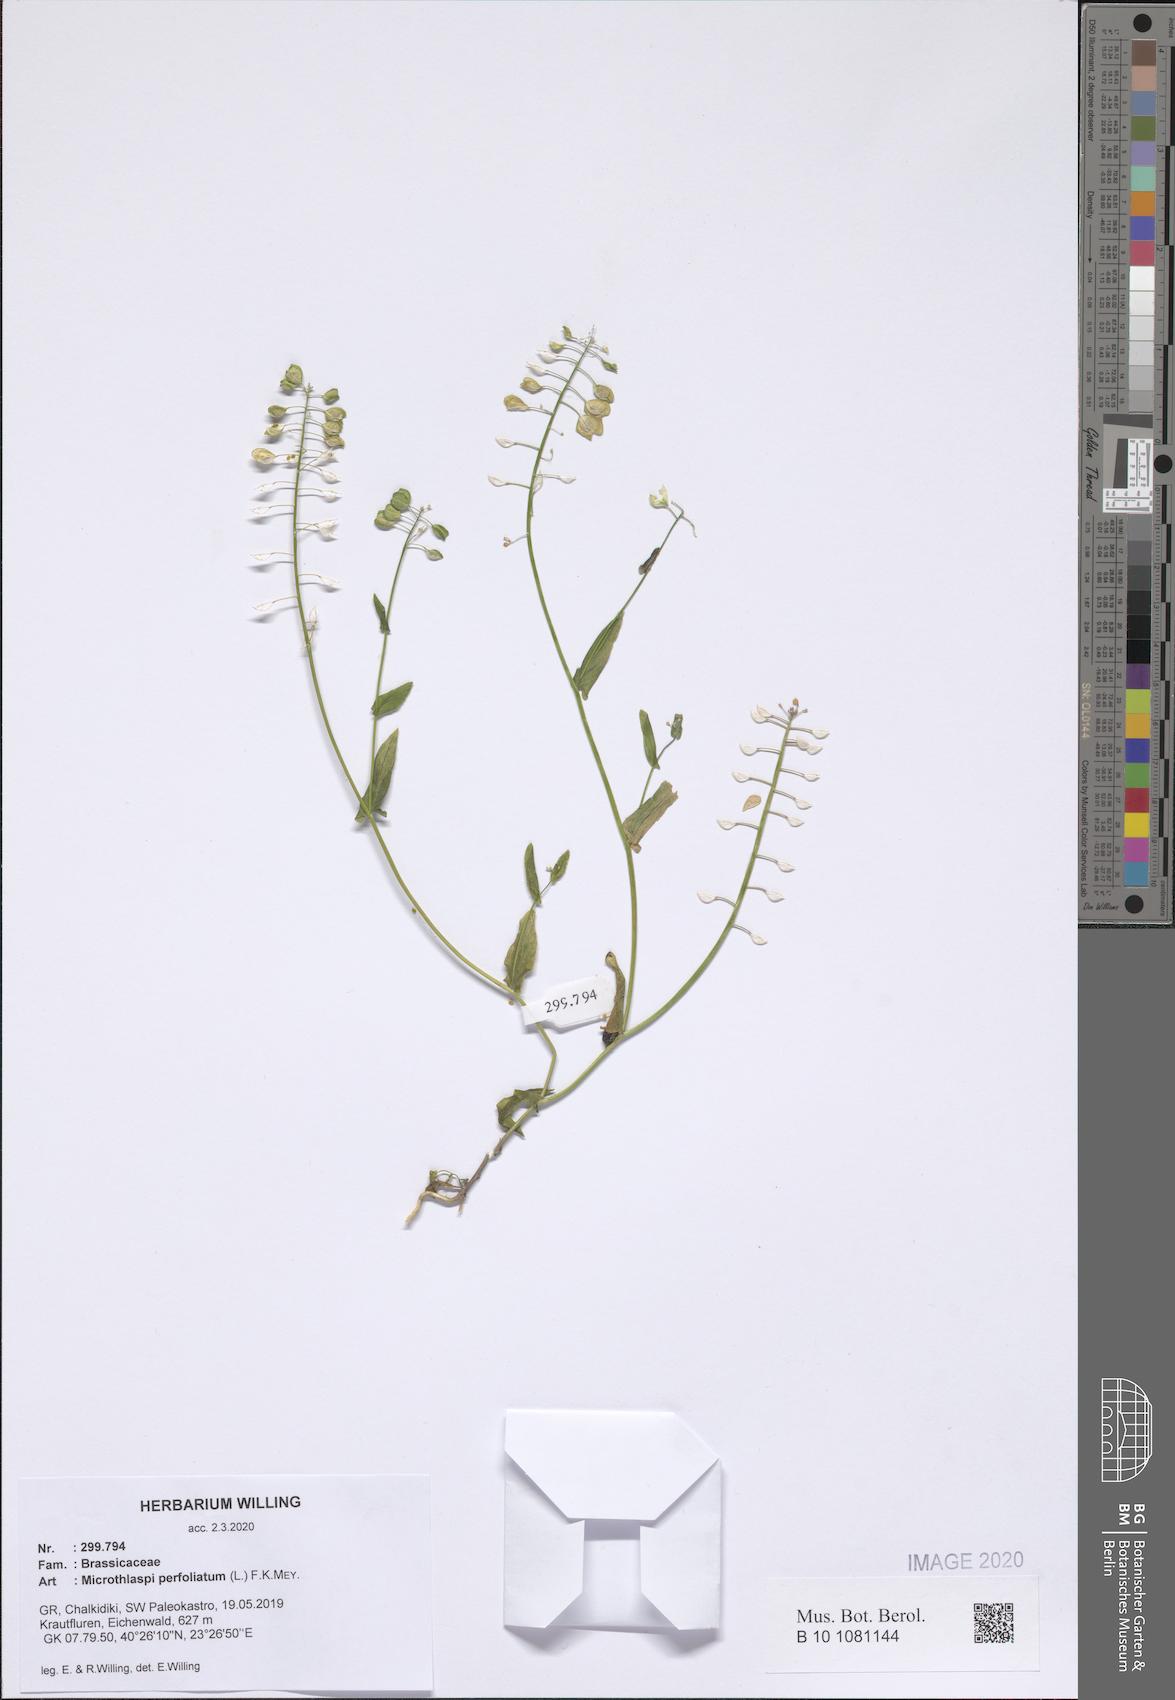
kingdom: Plantae
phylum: Tracheophyta
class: Magnoliopsida
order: Brassicales
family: Brassicaceae
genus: Noccaea
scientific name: Noccaea perfoliata
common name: Perfoliate pennycress
